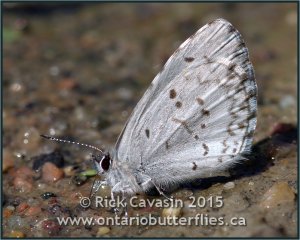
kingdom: Animalia
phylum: Arthropoda
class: Insecta
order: Lepidoptera
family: Lycaenidae
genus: Cyaniris
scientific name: Cyaniris neglecta
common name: Summer Azure
